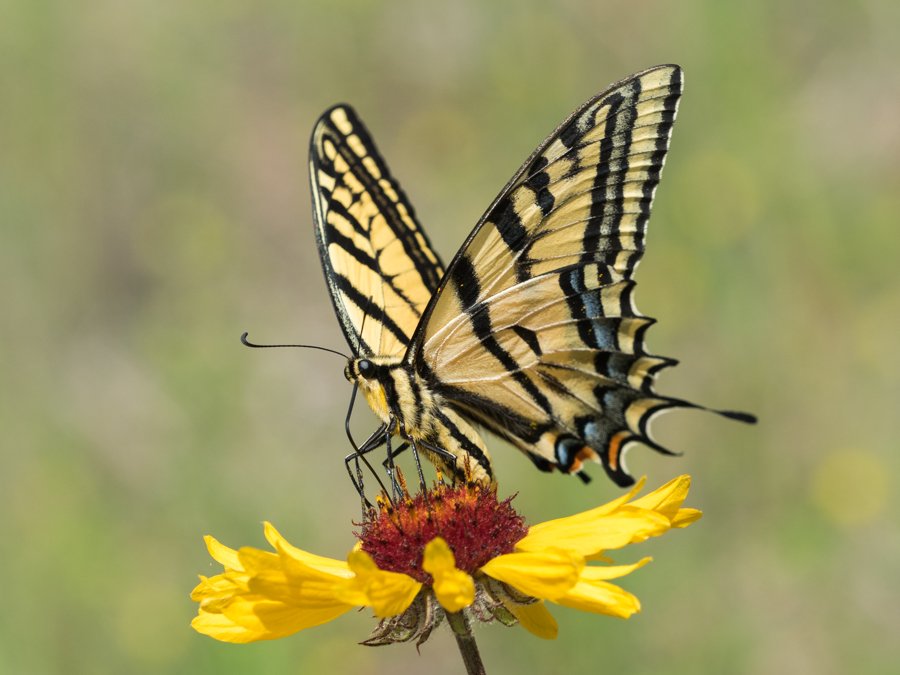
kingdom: Animalia
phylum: Arthropoda
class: Insecta
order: Lepidoptera
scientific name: Lepidoptera
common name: Butterflies
